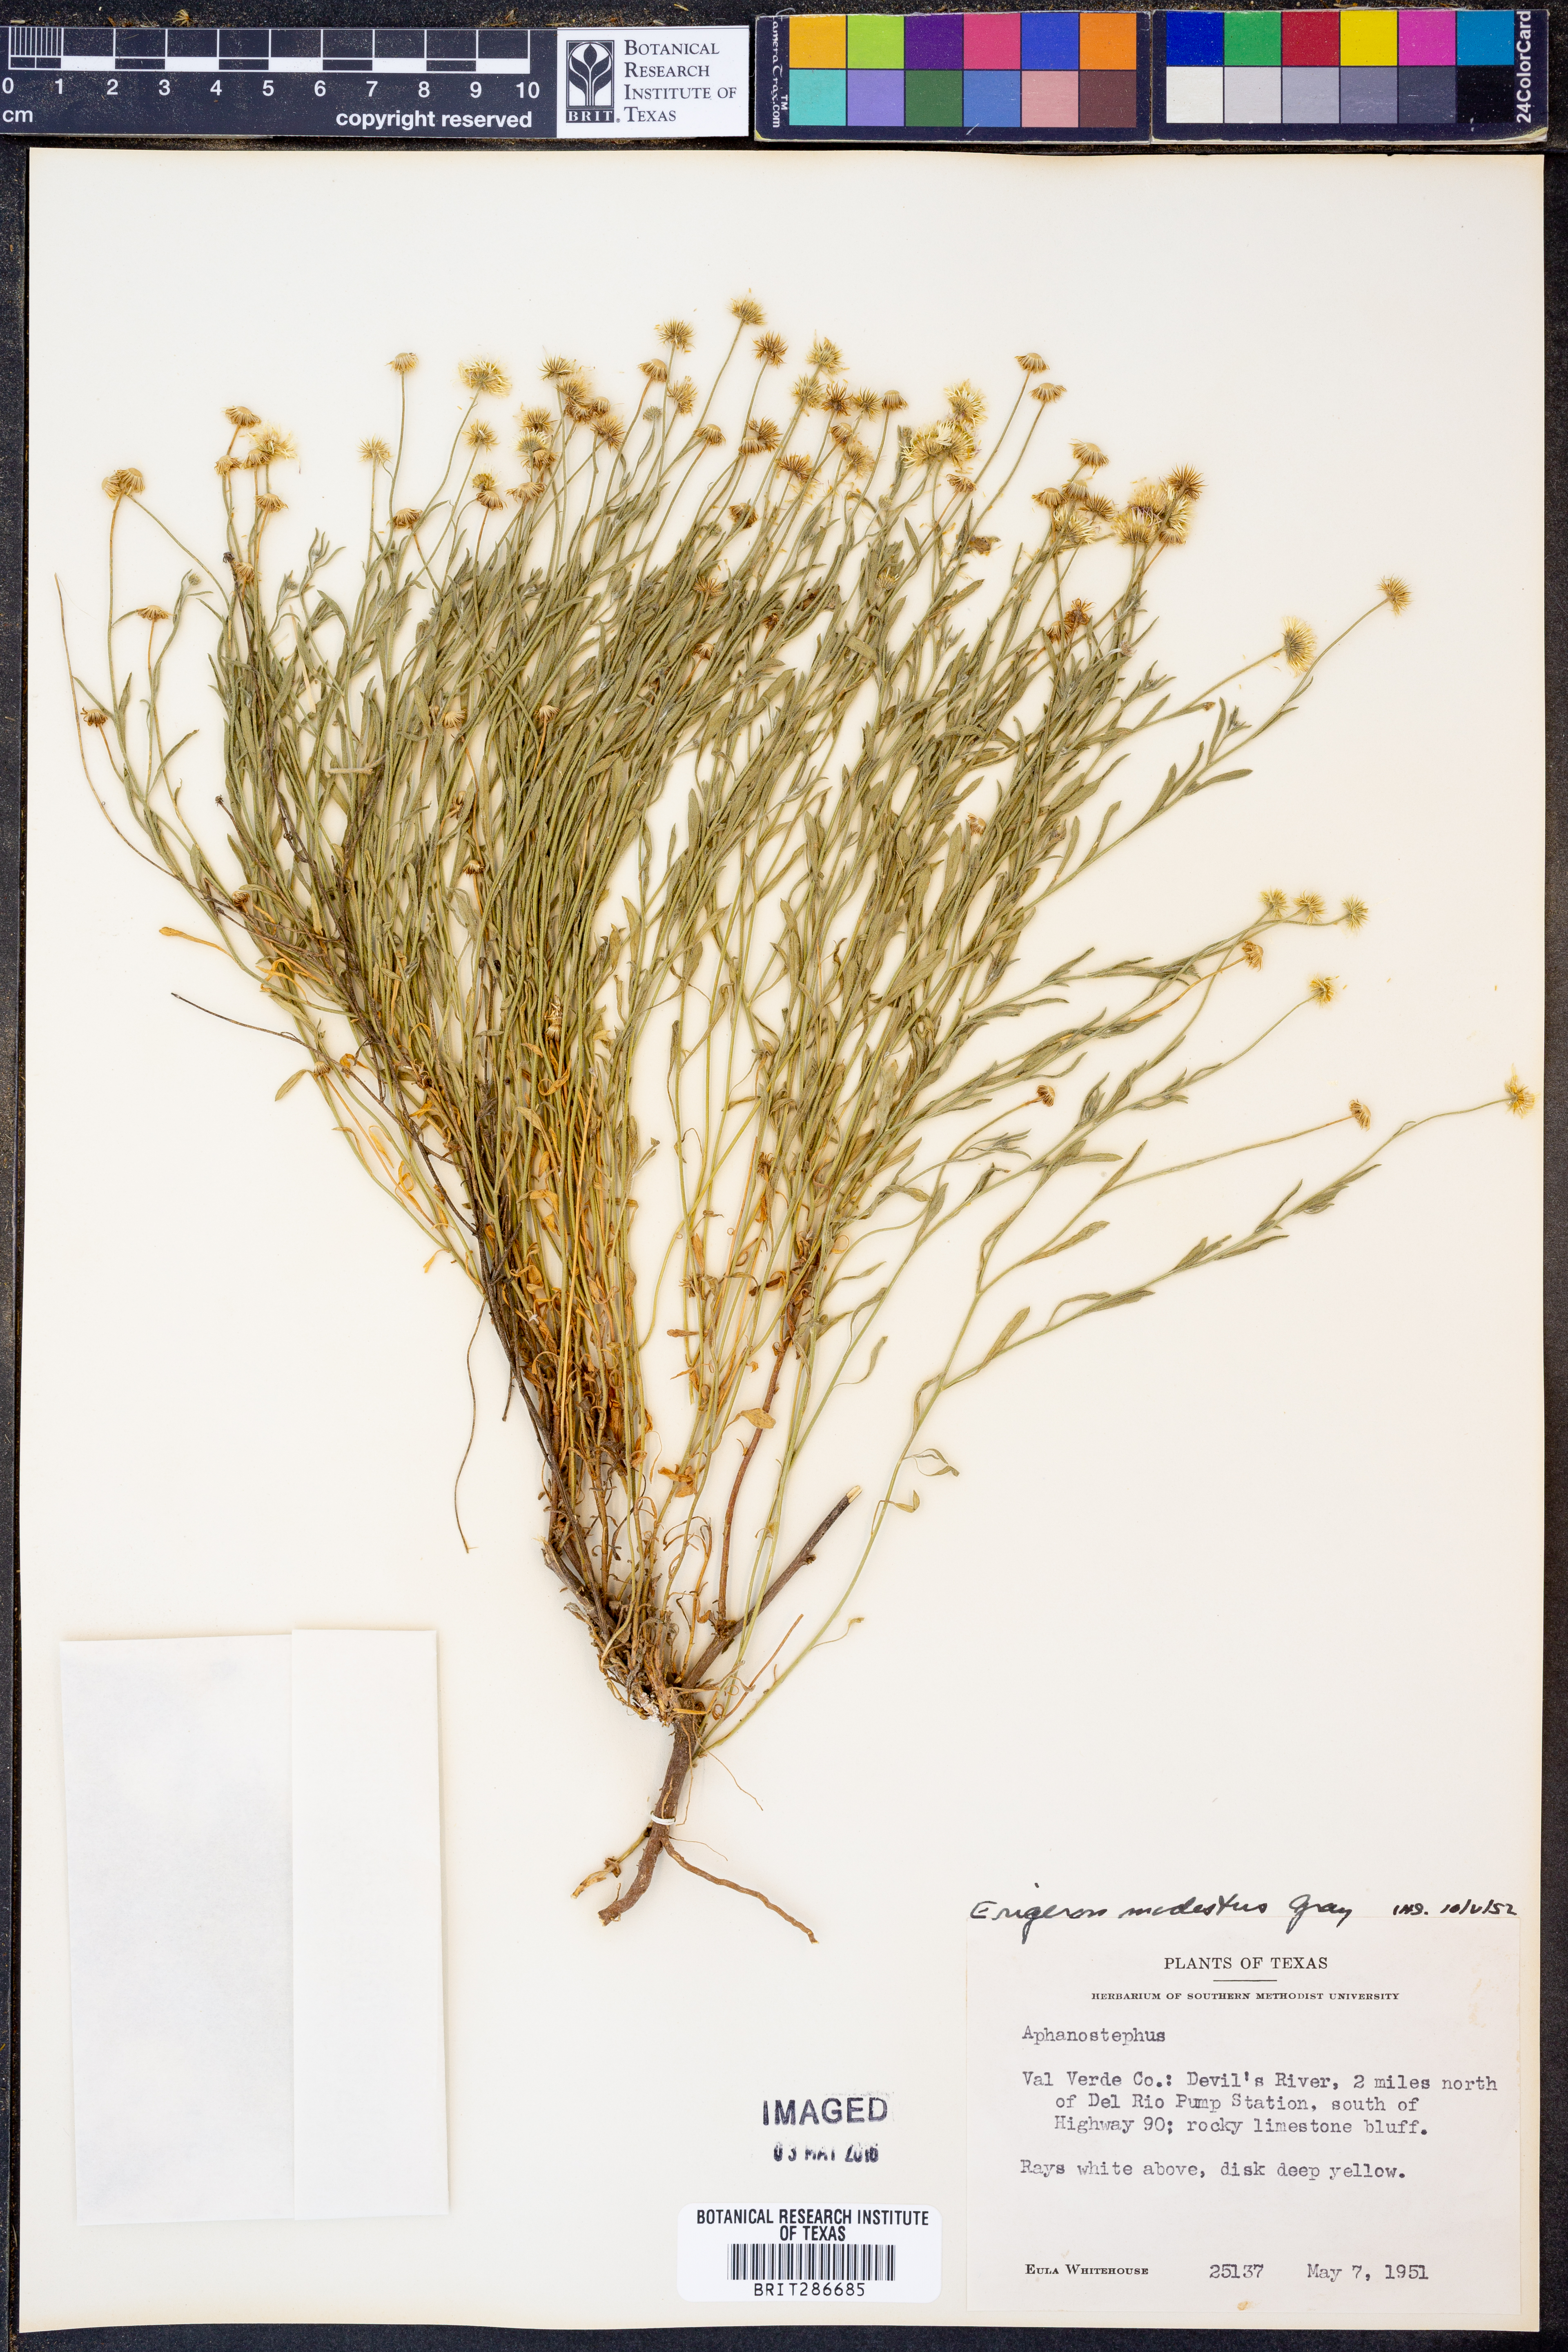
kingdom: Plantae
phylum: Tracheophyta
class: Magnoliopsida
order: Asterales
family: Asteraceae
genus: Erigeron
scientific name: Erigeron modestus
